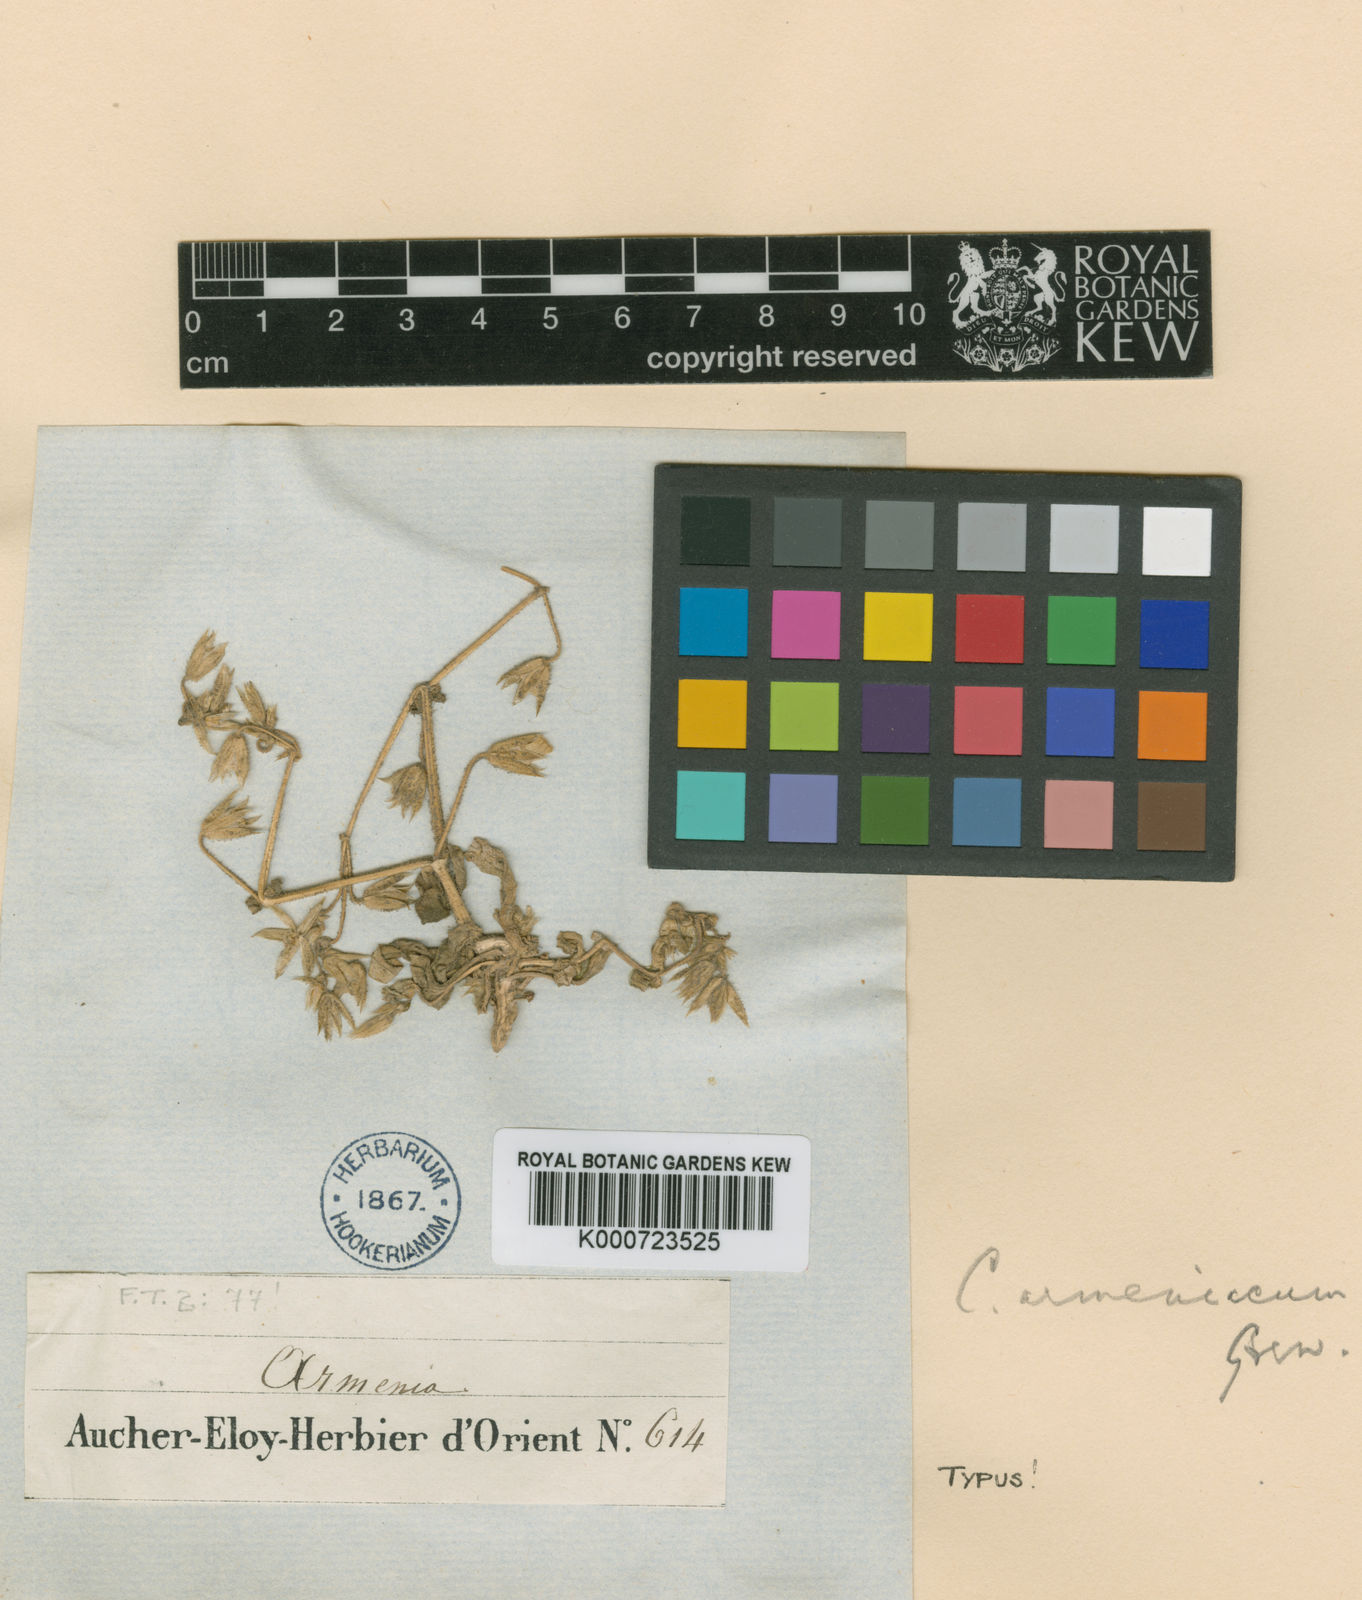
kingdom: Plantae
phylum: Tracheophyta
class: Magnoliopsida
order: Caryophyllales
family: Caryophyllaceae
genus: Cerastium
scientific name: Cerastium argenteum
